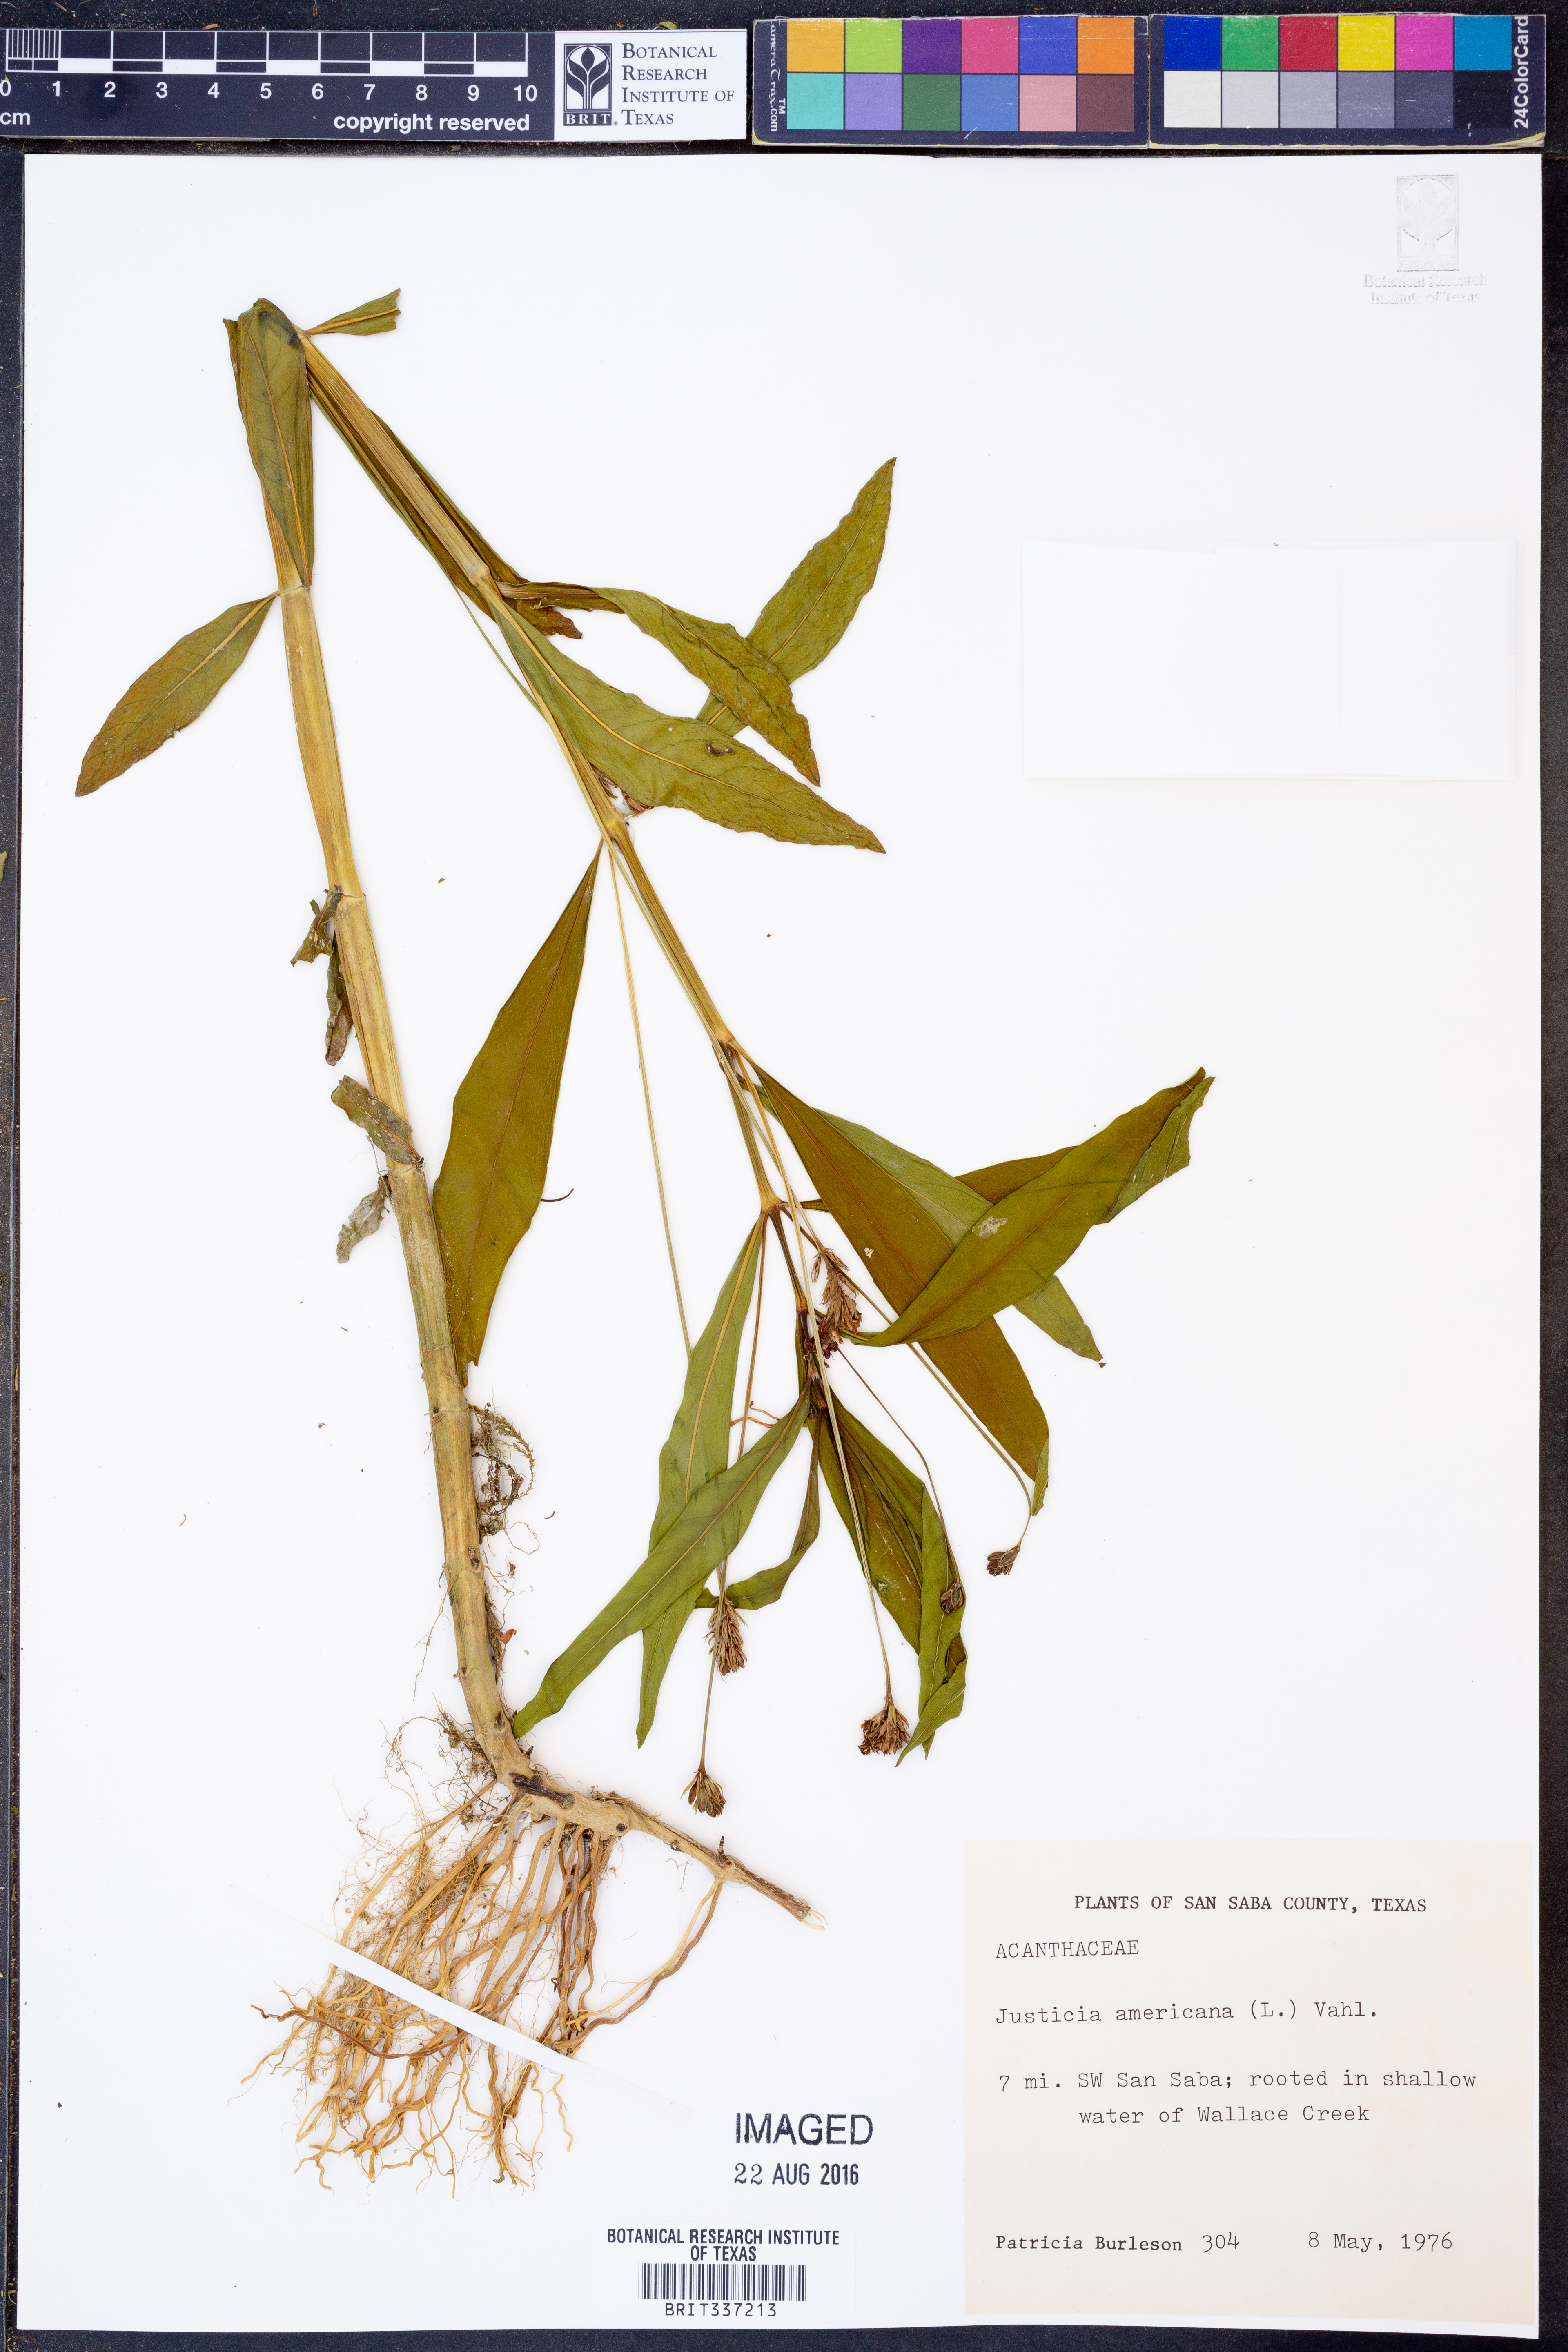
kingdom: Plantae
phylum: Tracheophyta
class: Magnoliopsida
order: Lamiales
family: Acanthaceae
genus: Dianthera
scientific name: Dianthera americana
